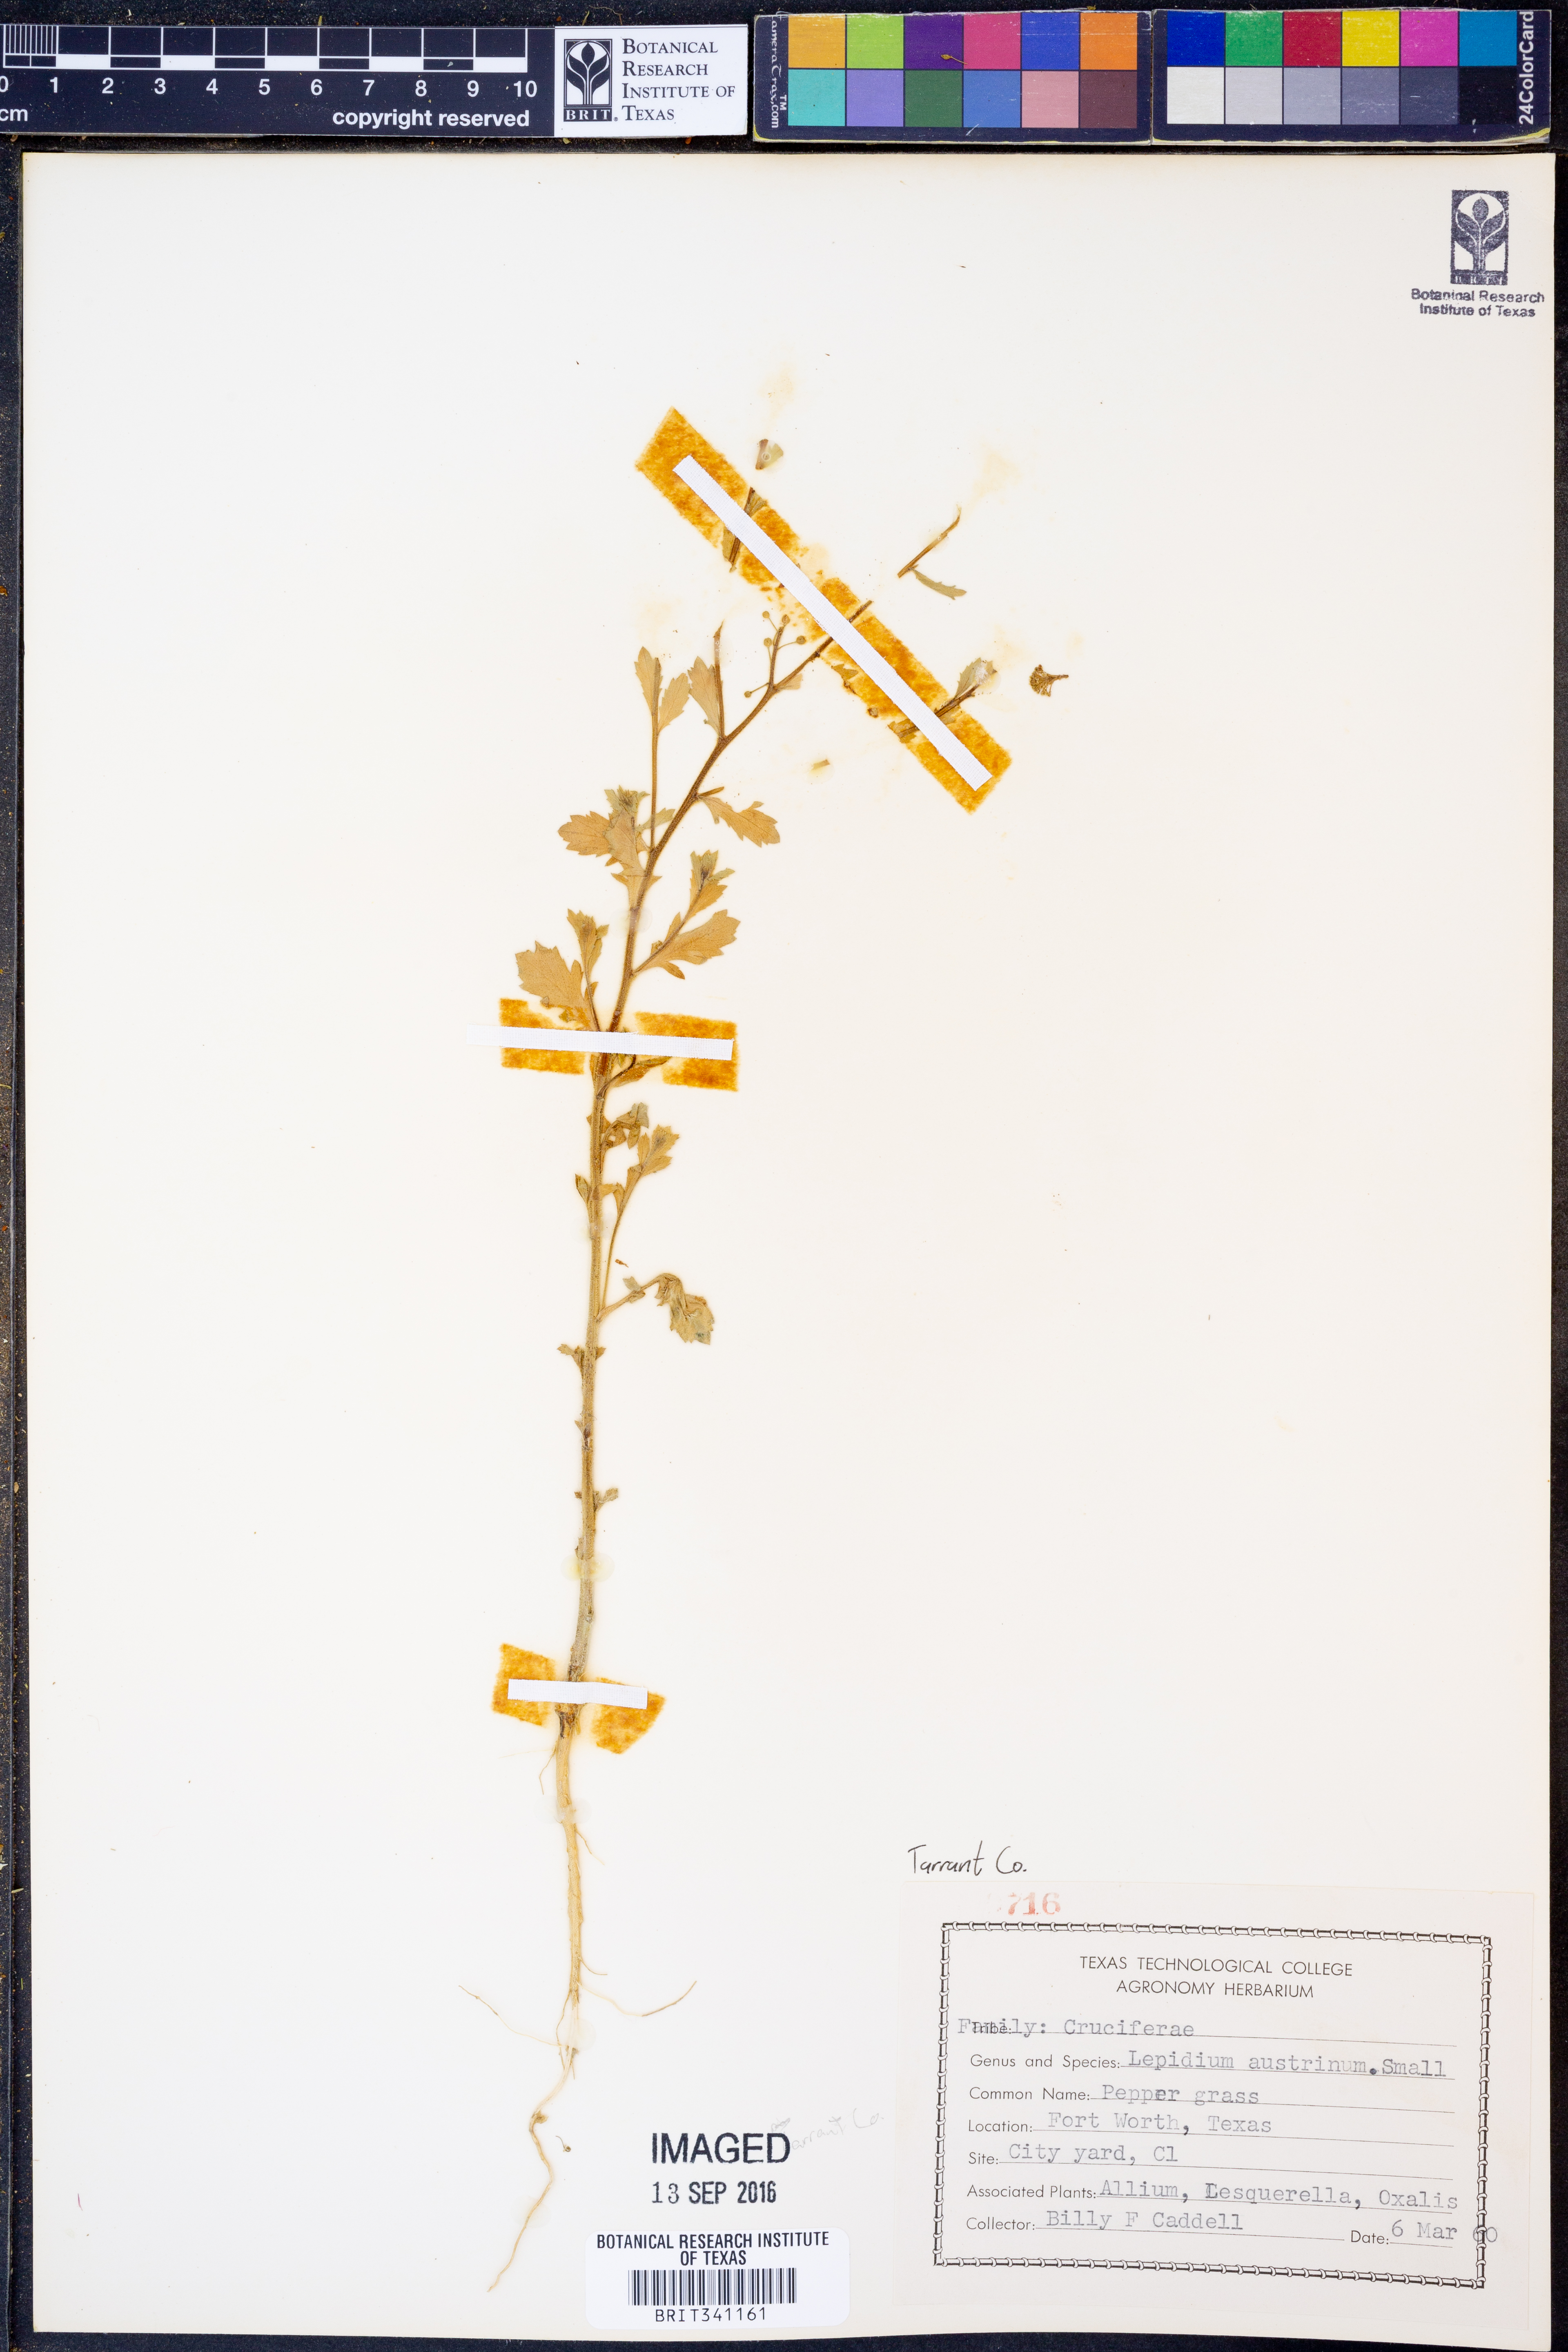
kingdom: Plantae
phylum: Tracheophyta
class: Magnoliopsida
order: Brassicales
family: Brassicaceae
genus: Lepidium
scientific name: Lepidium austrinum
